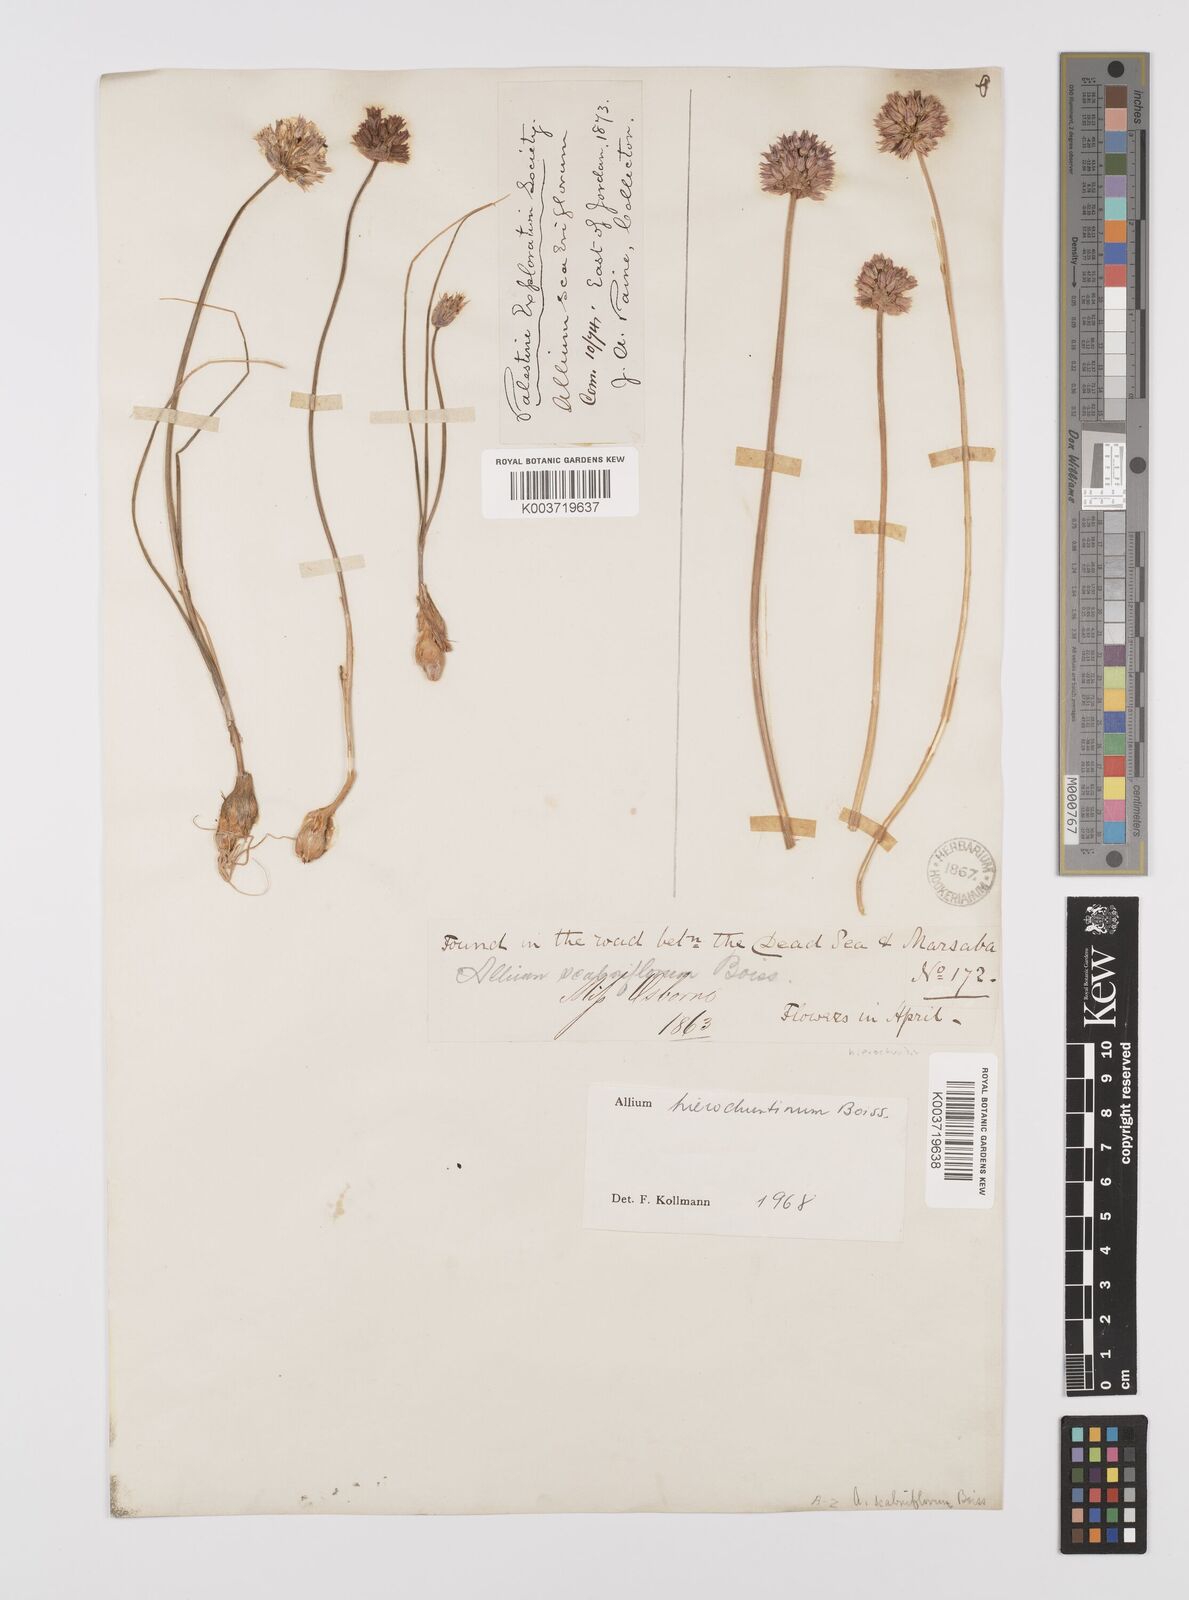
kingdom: Plantae
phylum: Tracheophyta
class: Liliopsida
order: Asparagales
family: Amaryllidaceae
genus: Allium
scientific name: Allium ascalonicum
